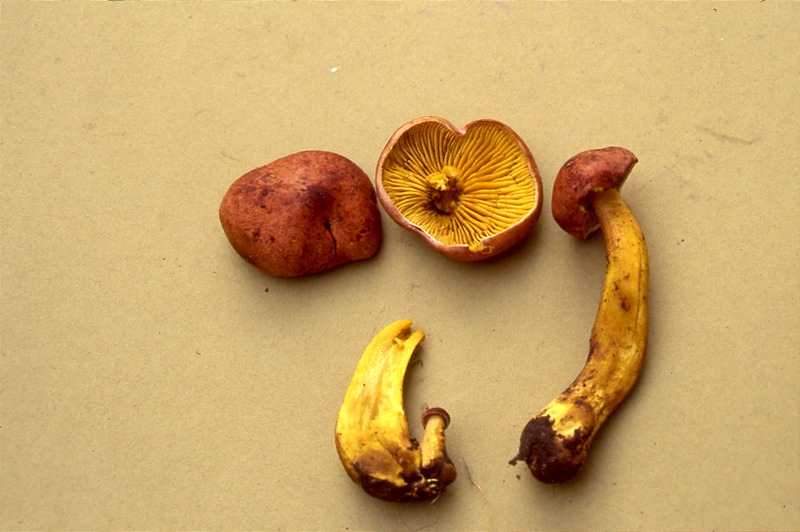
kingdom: Fungi
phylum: Basidiomycota
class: Agaricomycetes
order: Agaricales
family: Tricholomataceae
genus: Tricholoma
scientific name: Tricholoma fulvum
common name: Birch knight
